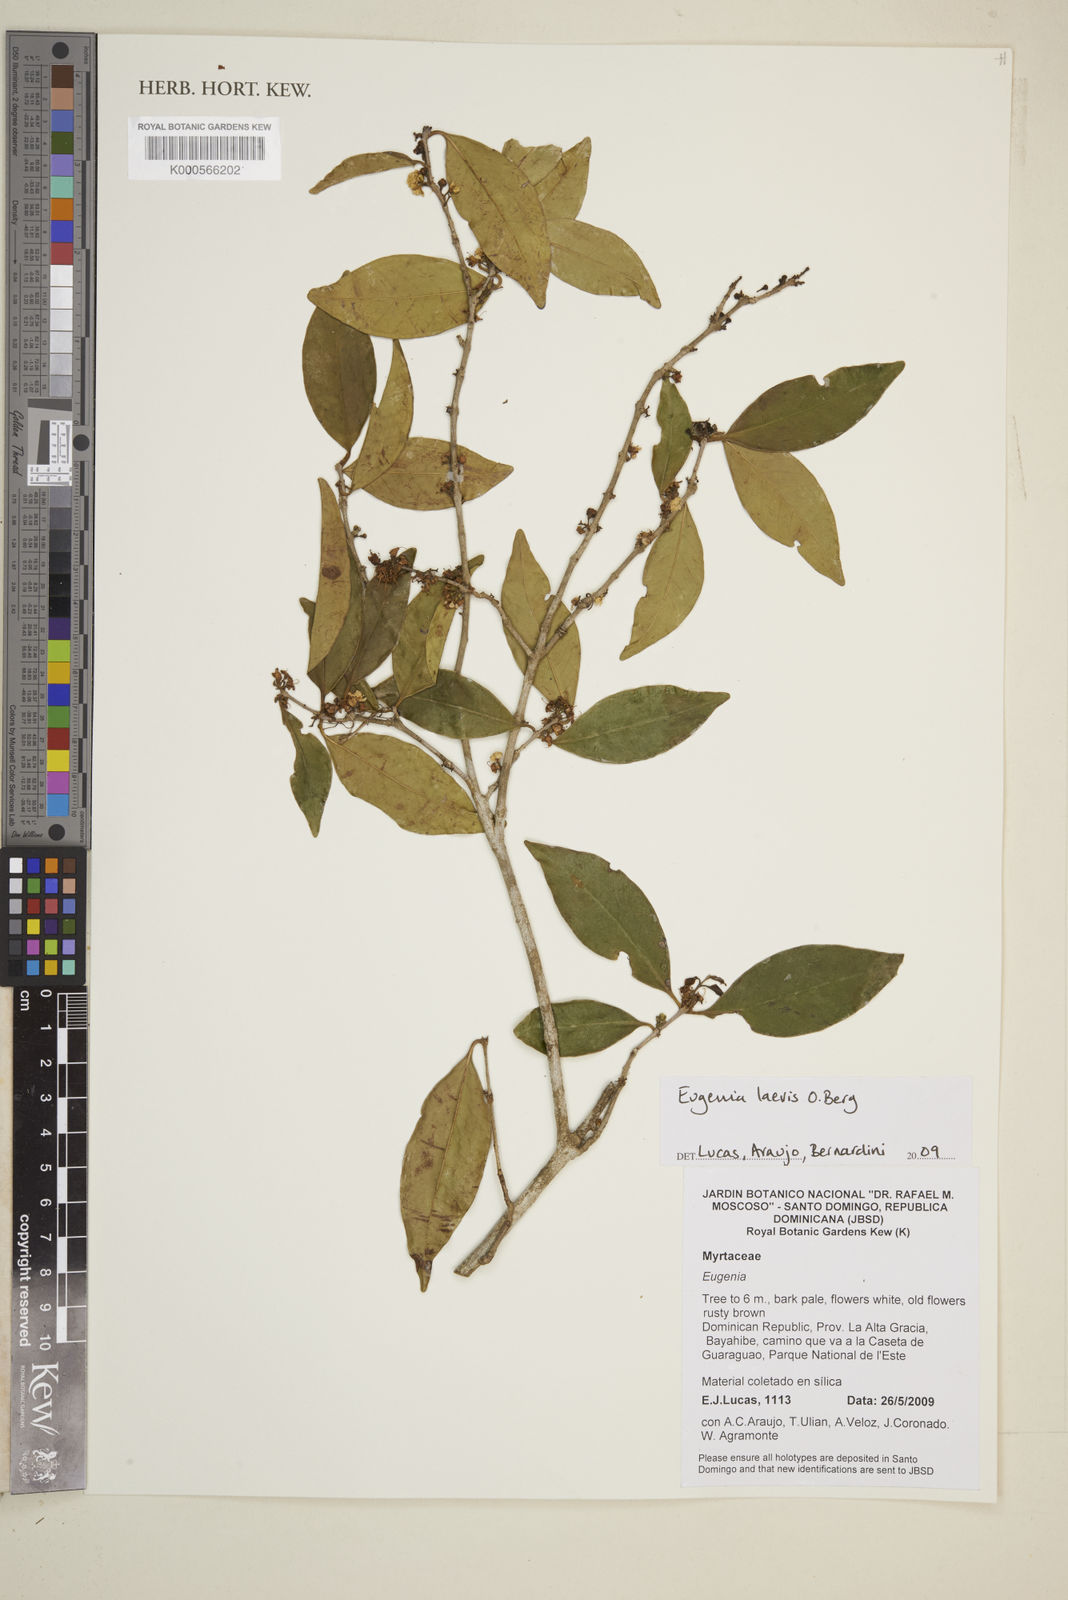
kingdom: Plantae
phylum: Tracheophyta
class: Magnoliopsida
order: Myrtales
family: Myrtaceae
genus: Eugenia
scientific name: Eugenia laevis
